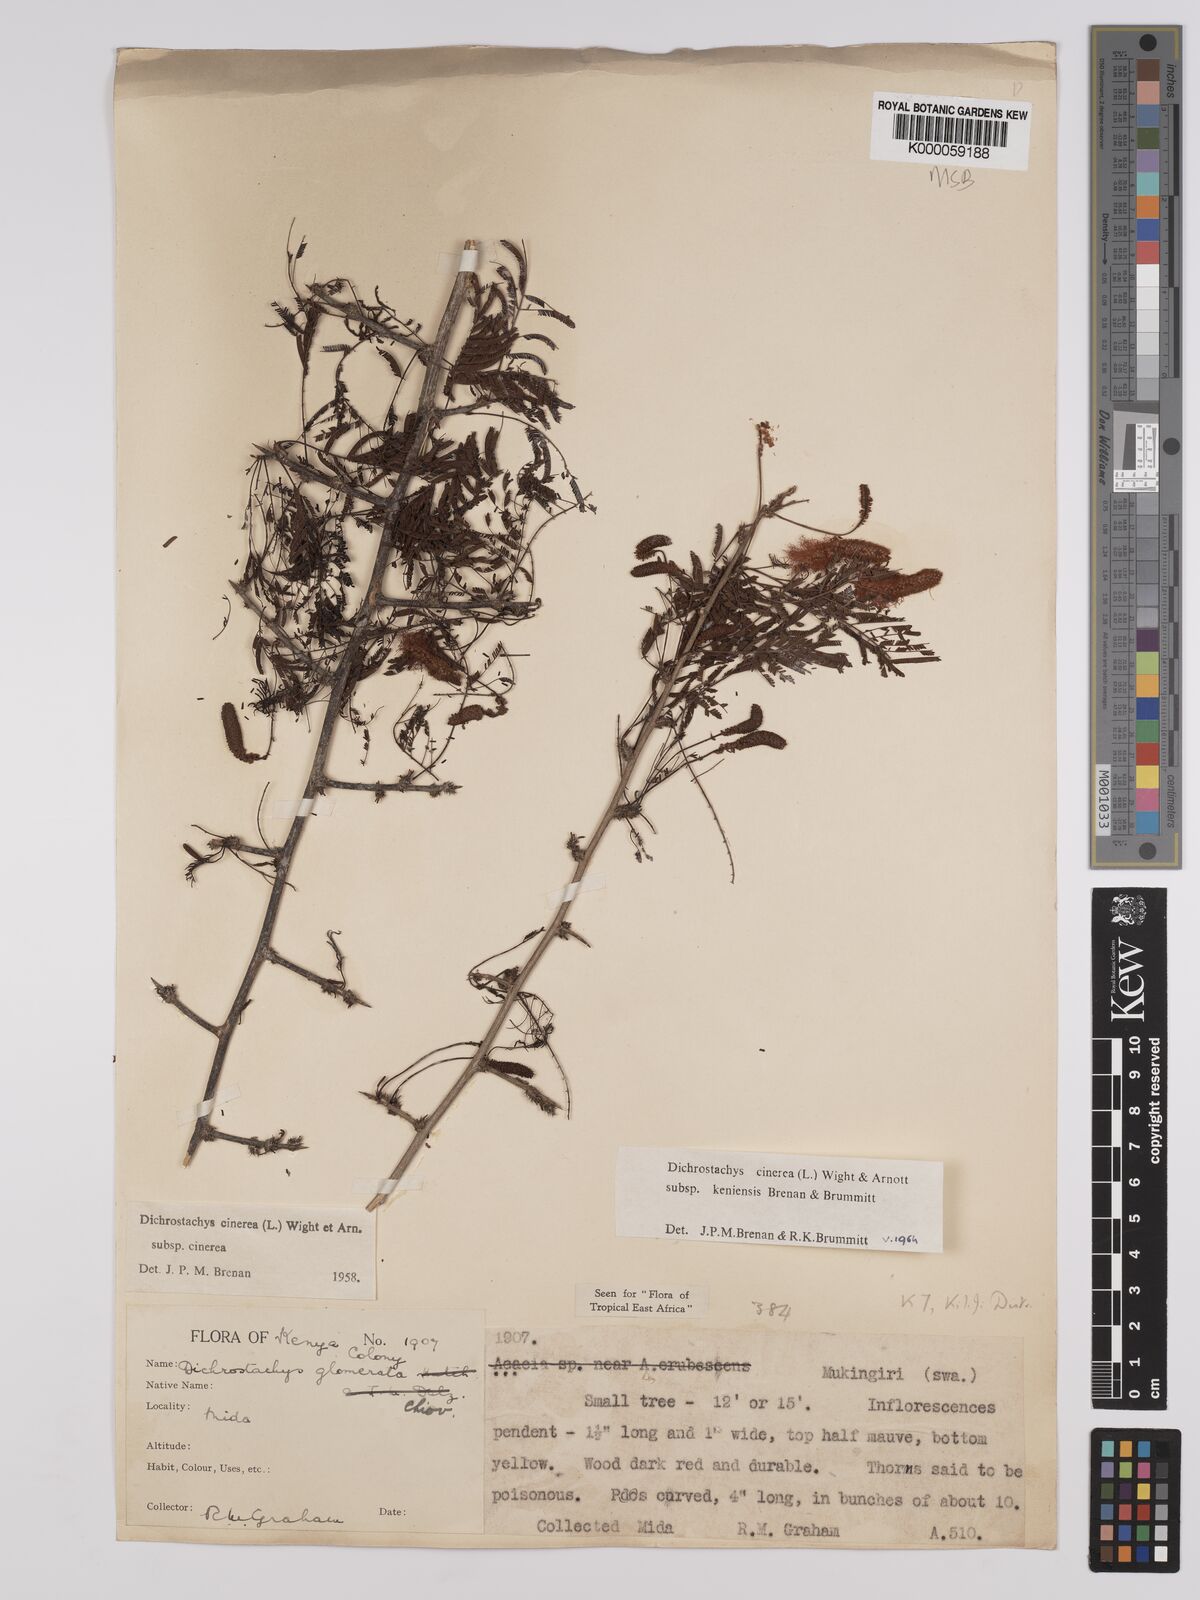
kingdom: Plantae
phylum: Tracheophyta
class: Magnoliopsida
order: Fabales
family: Fabaceae
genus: Dichrostachys
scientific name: Dichrostachys cinerea
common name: Sicklebush
